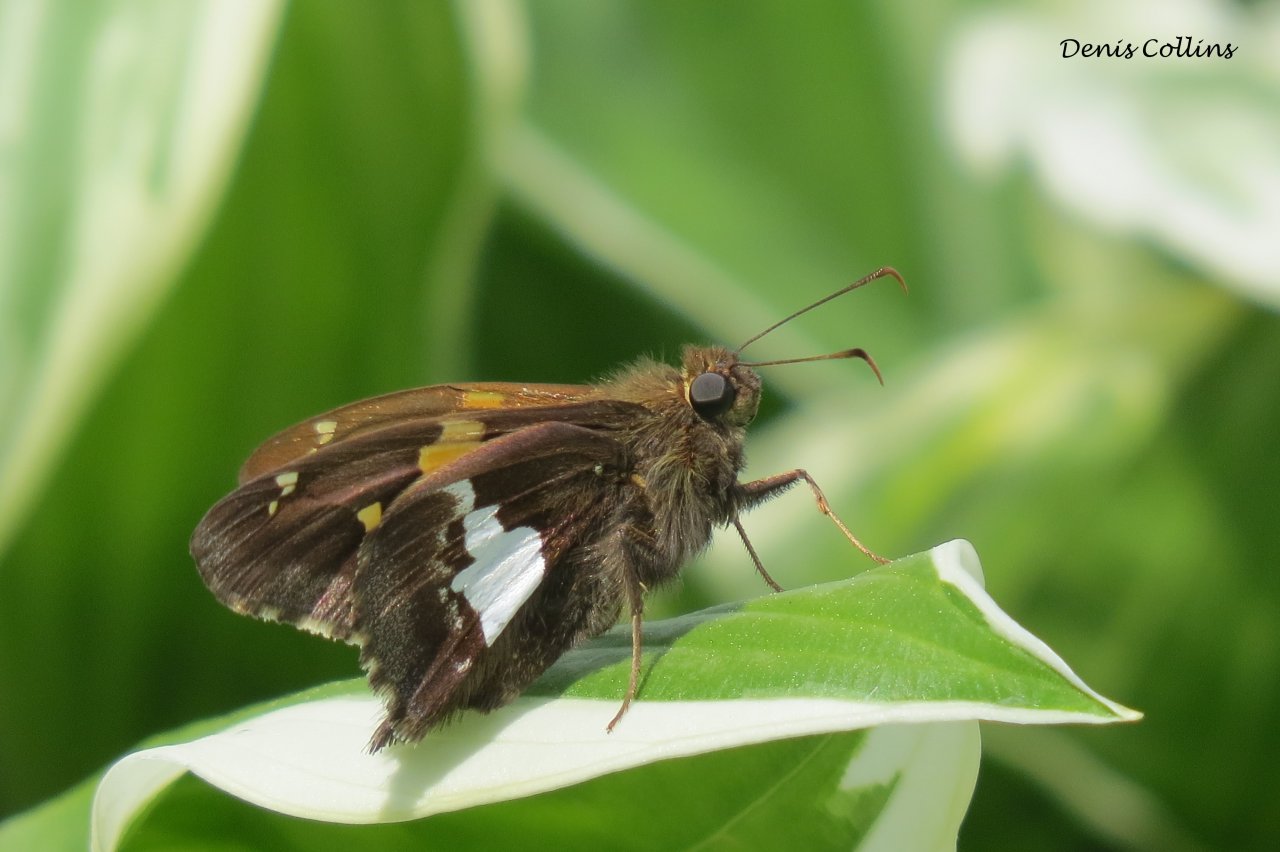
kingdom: Animalia
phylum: Arthropoda
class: Insecta
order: Lepidoptera
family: Hesperiidae
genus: Epargyreus
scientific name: Epargyreus clarus
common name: Silver-spotted Skipper
